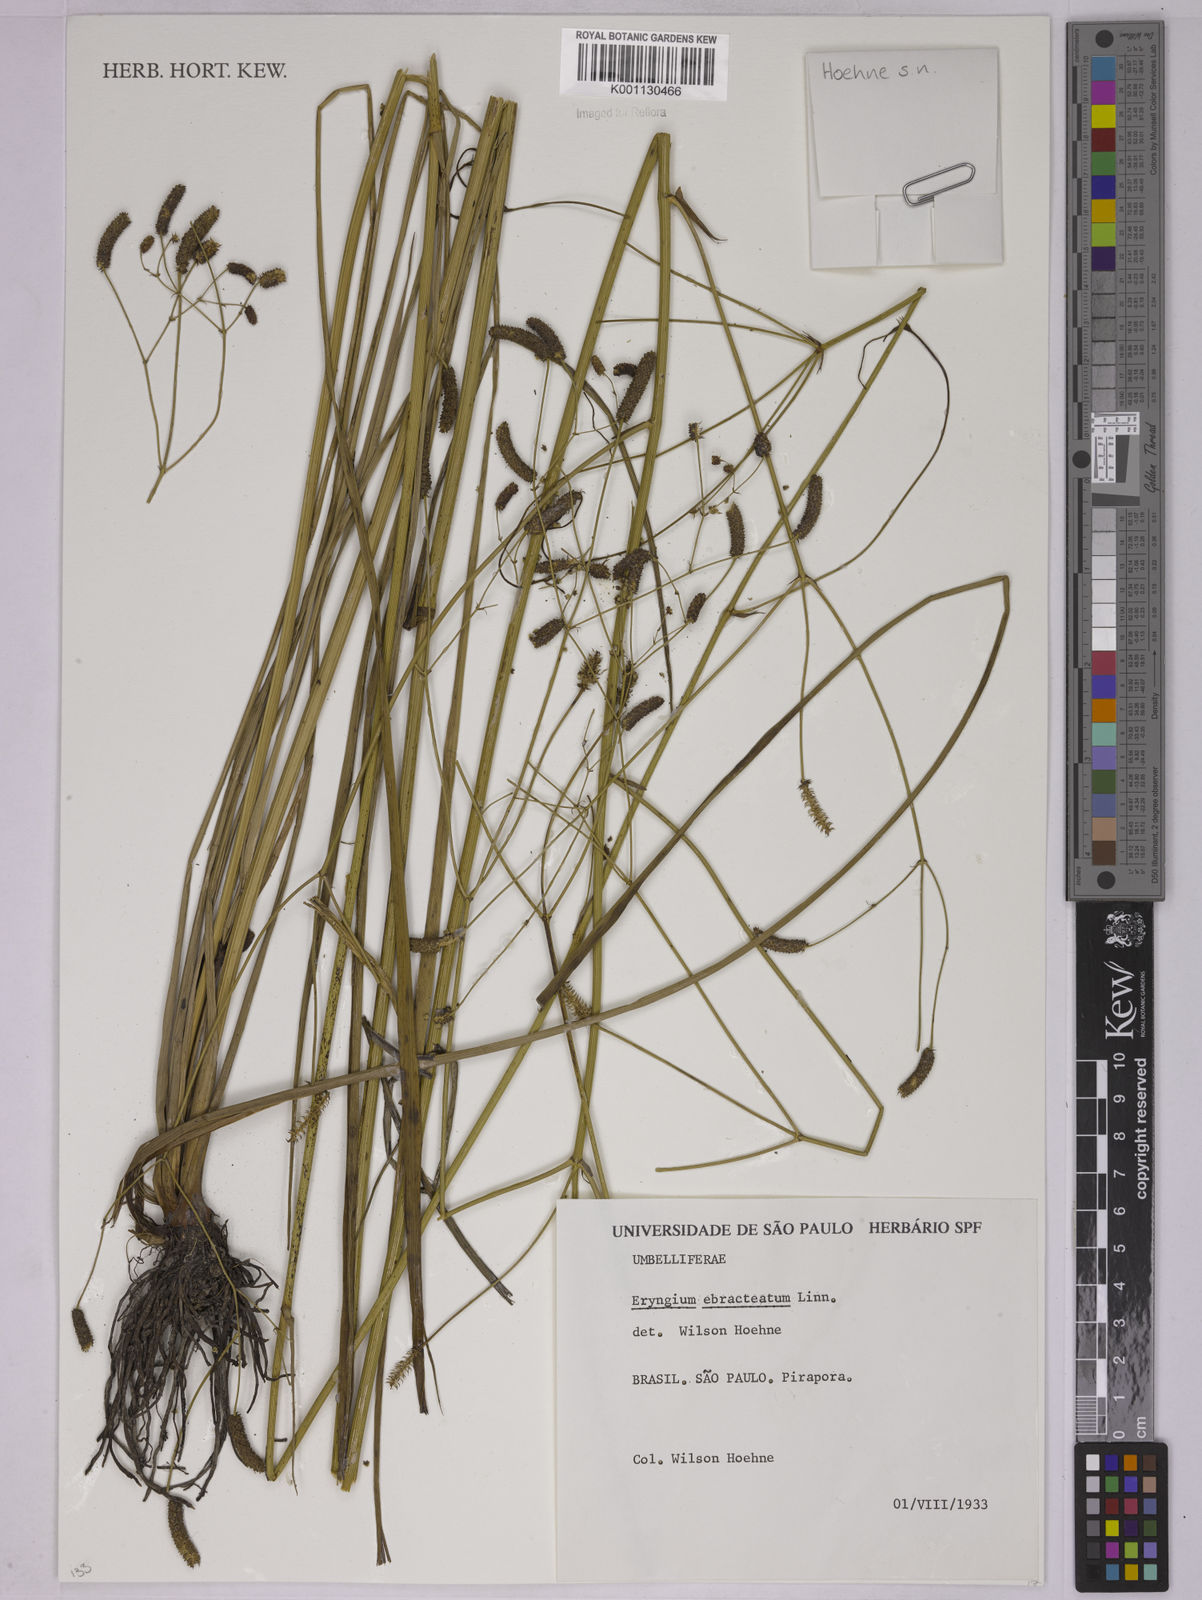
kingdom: Plantae
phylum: Tracheophyta
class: Magnoliopsida
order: Apiales
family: Apiaceae
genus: Eryngium
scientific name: Eryngium ebracteatum
